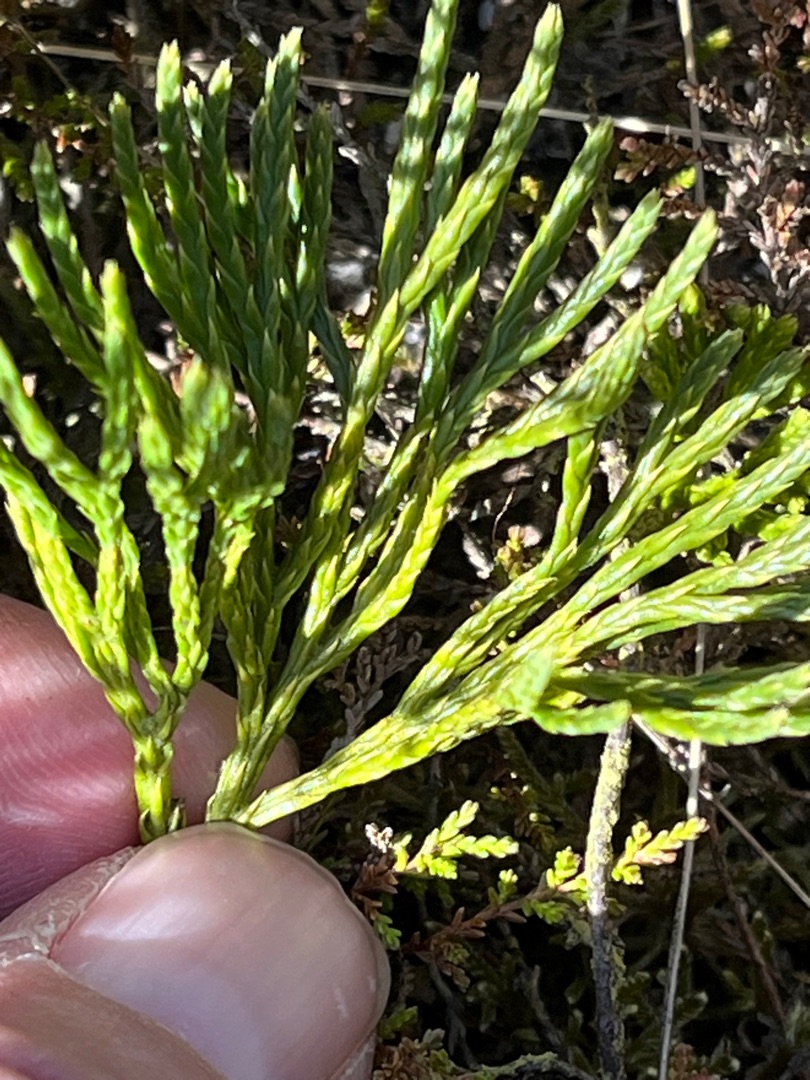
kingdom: Plantae
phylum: Tracheophyta
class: Lycopodiopsida
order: Lycopodiales
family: Lycopodiaceae
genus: Diphasiastrum
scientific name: Diphasiastrum tristachyum
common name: Cypres-ulvefod
